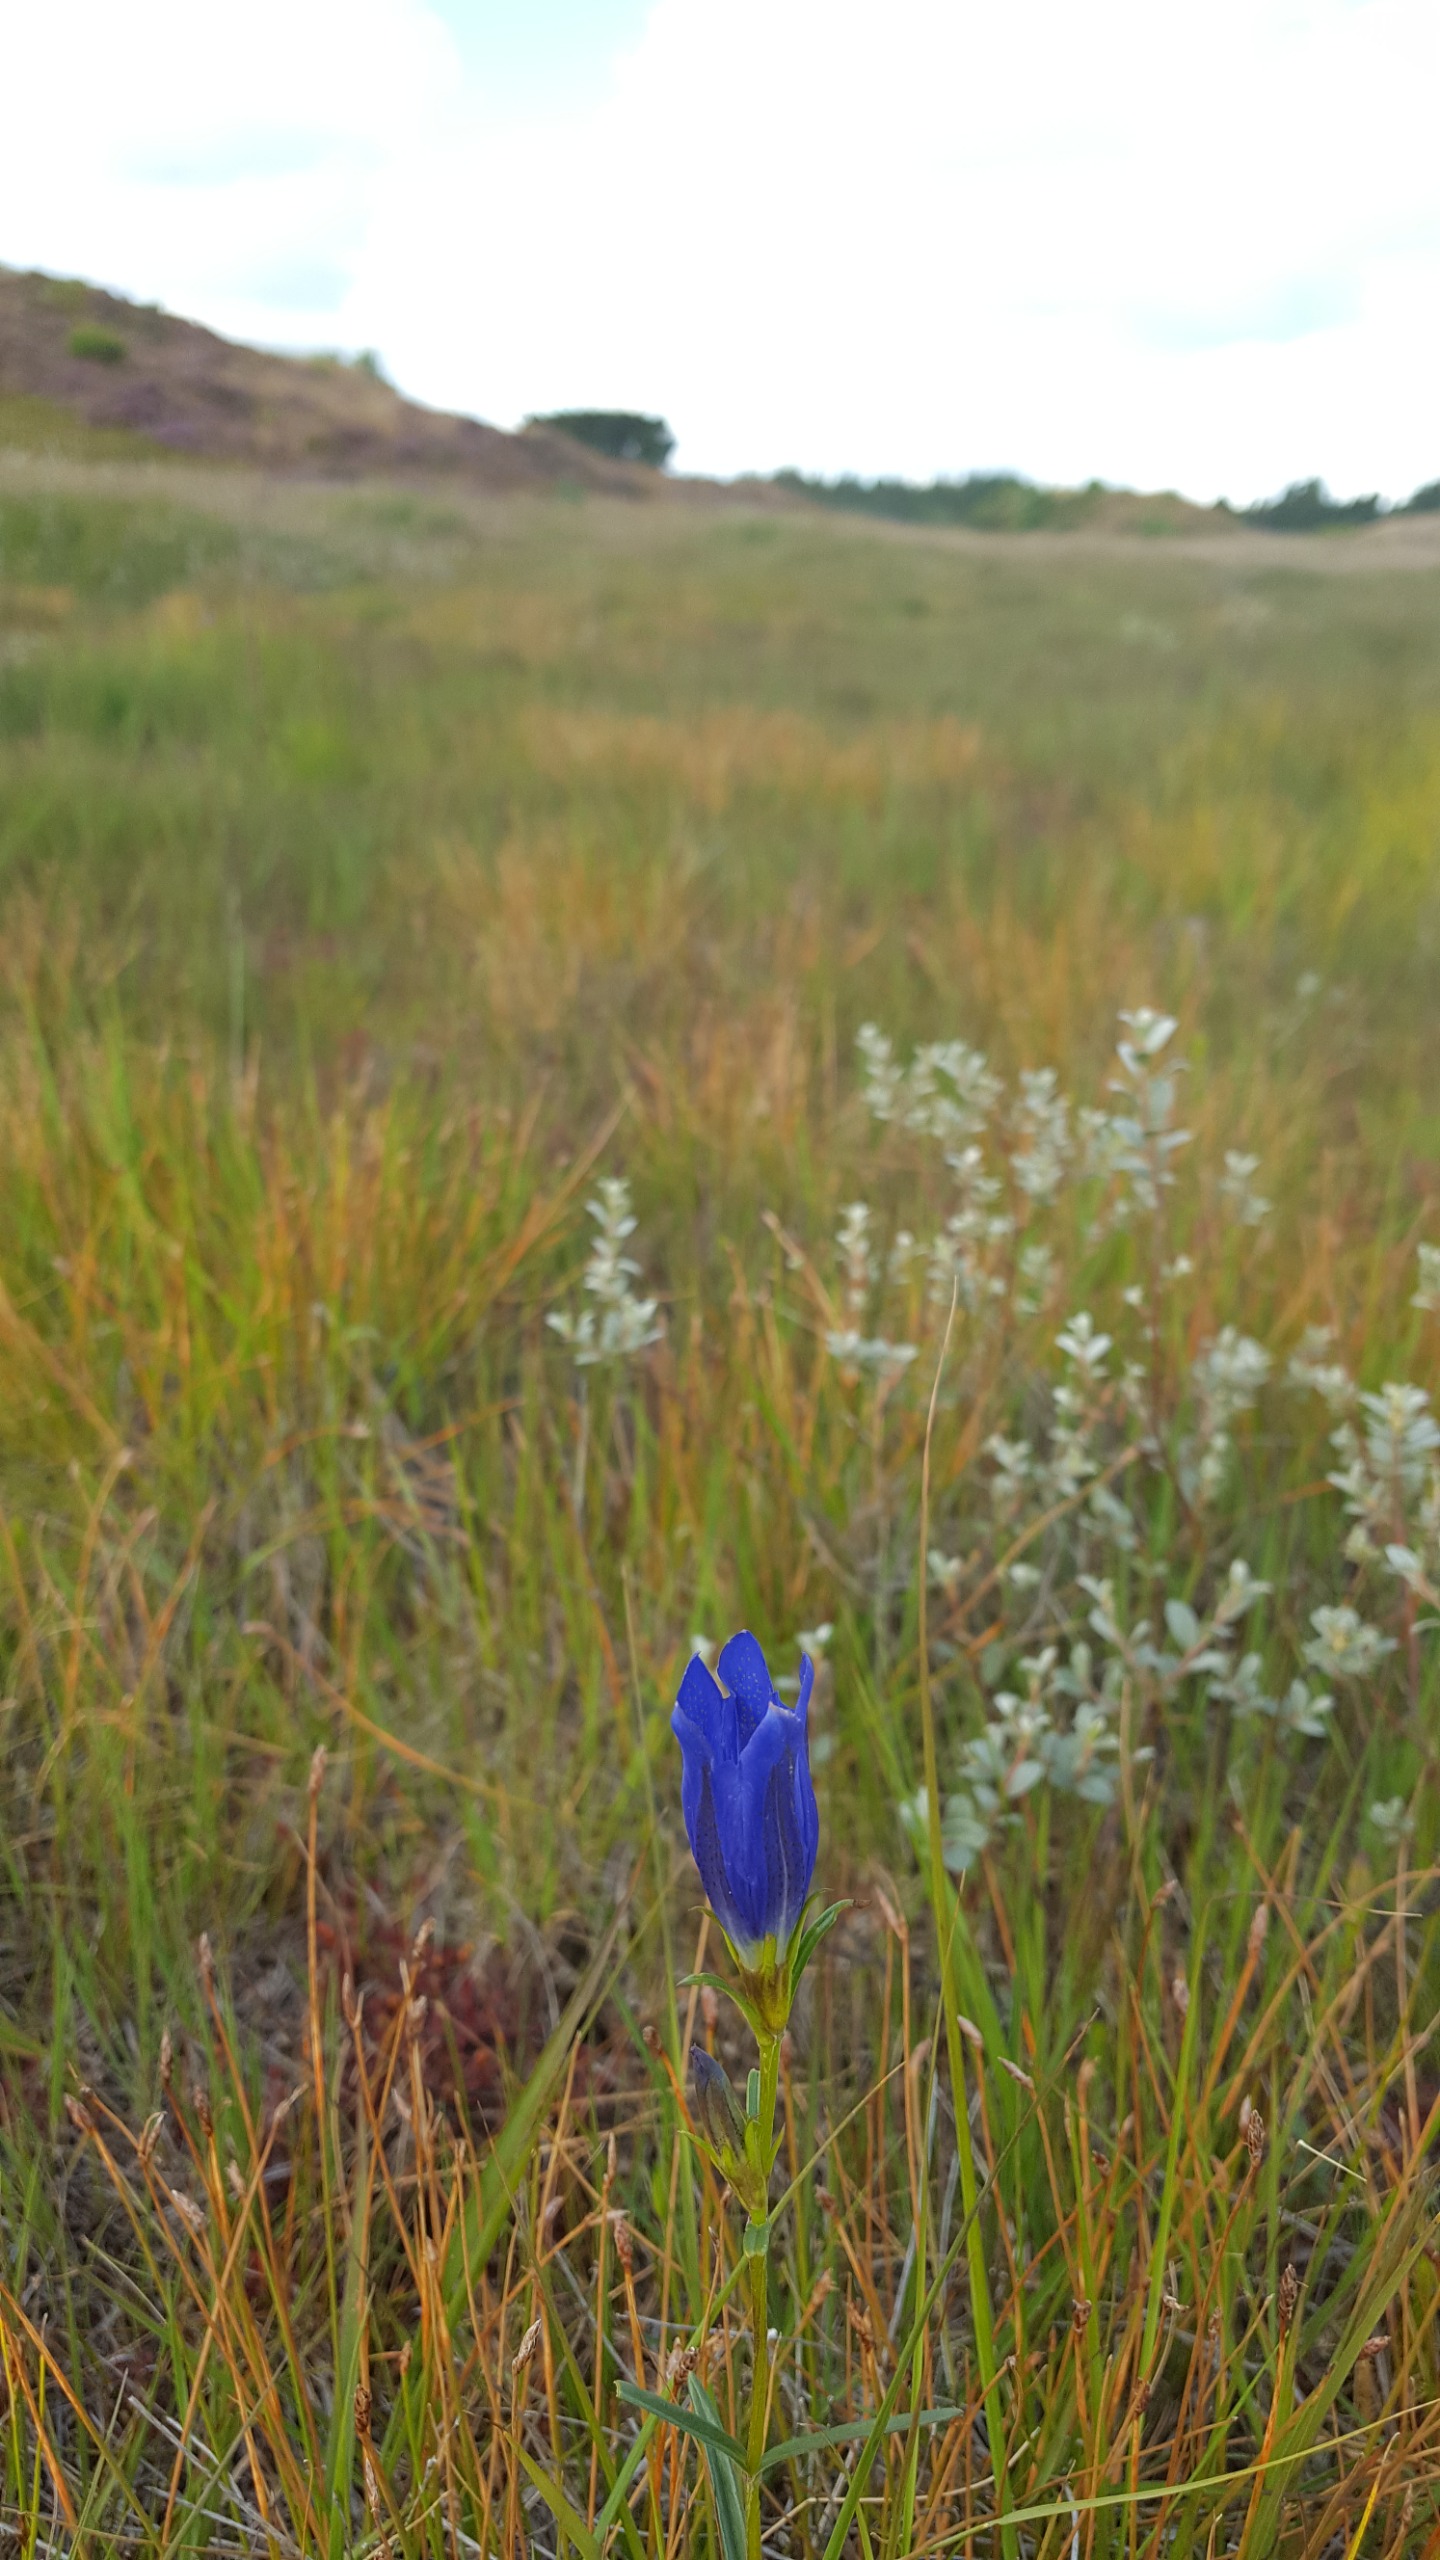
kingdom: Plantae
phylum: Tracheophyta
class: Magnoliopsida
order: Gentianales
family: Gentianaceae
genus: Gentiana
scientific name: Gentiana pneumonanthe
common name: Klokke-ensian
